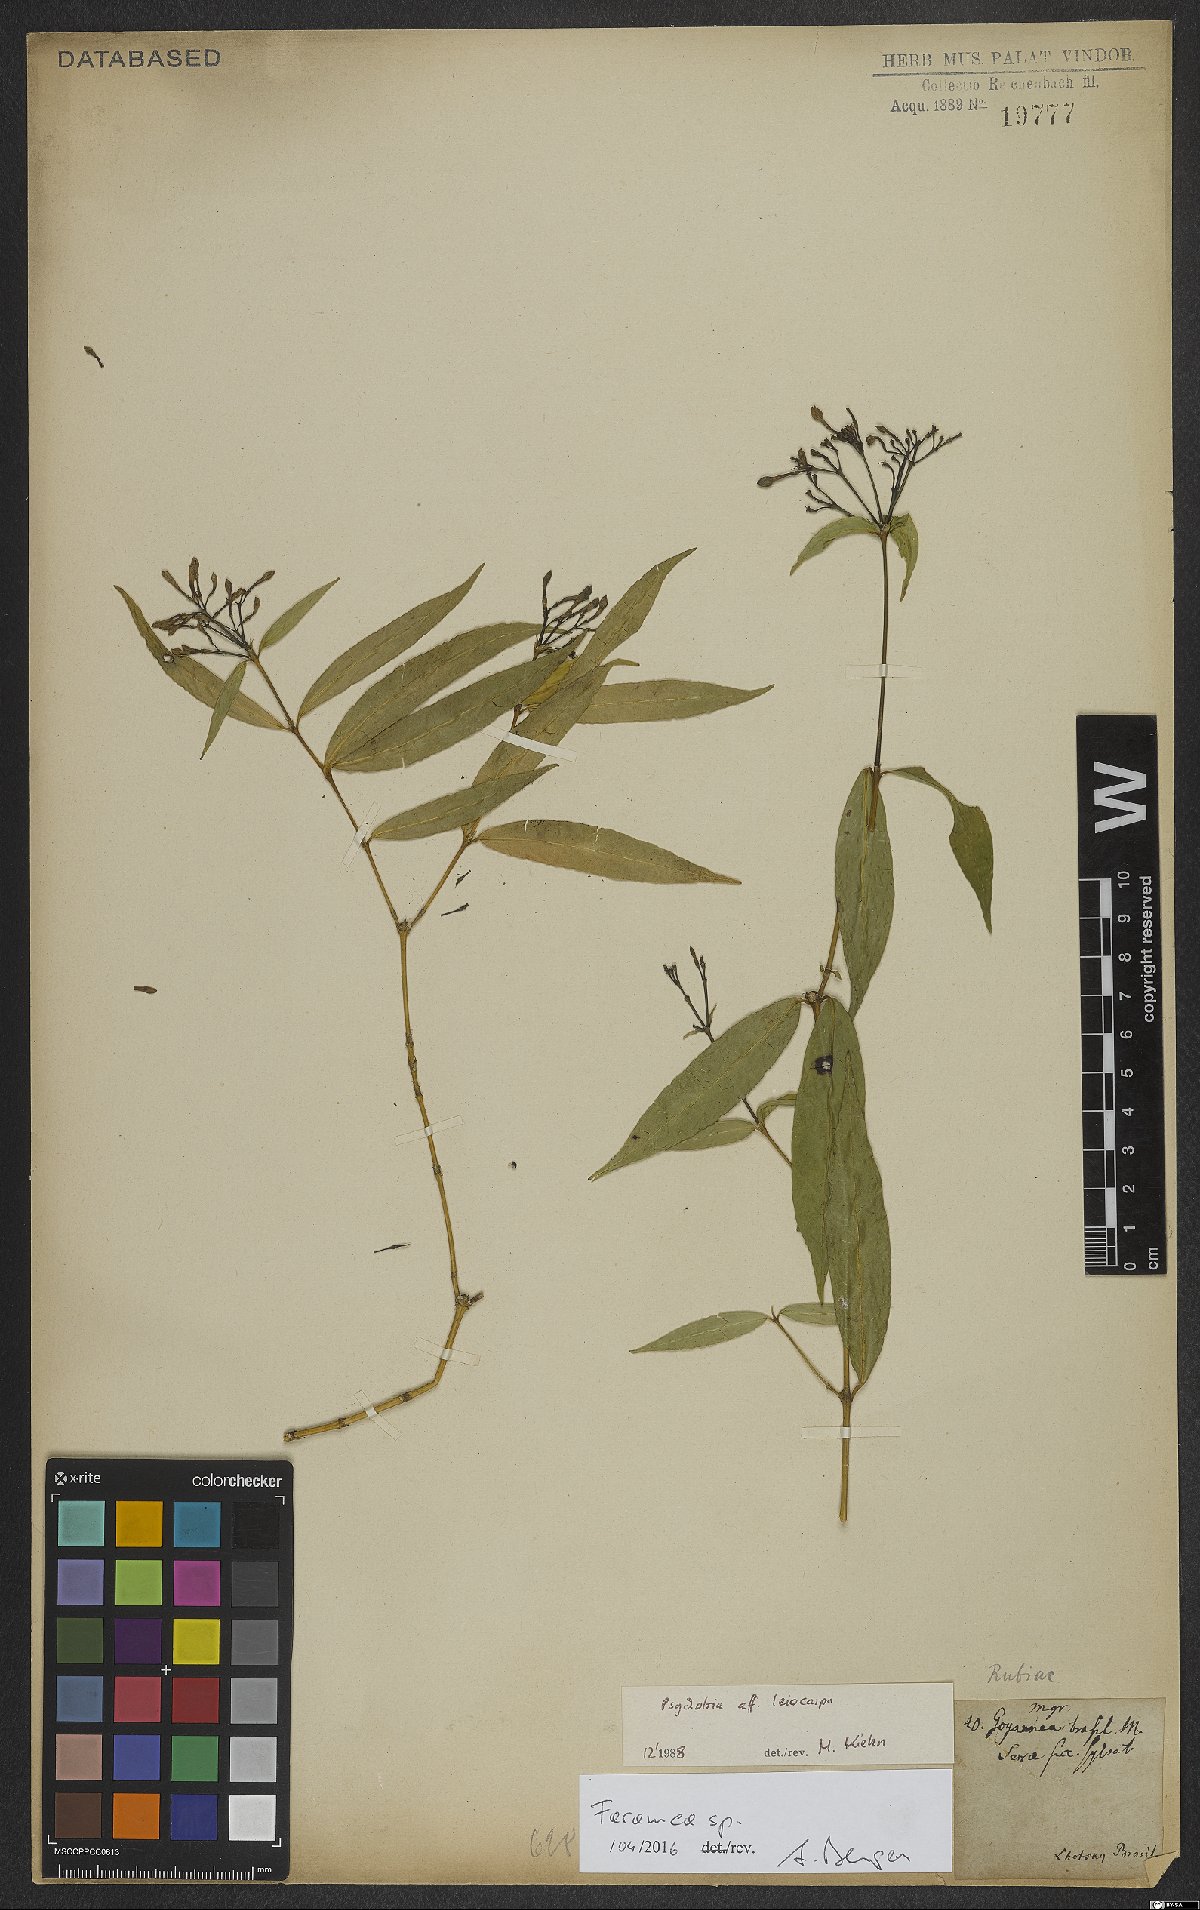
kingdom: Plantae
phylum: Tracheophyta
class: Magnoliopsida
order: Gentianales
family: Rubiaceae
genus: Faramea
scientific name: Faramea
